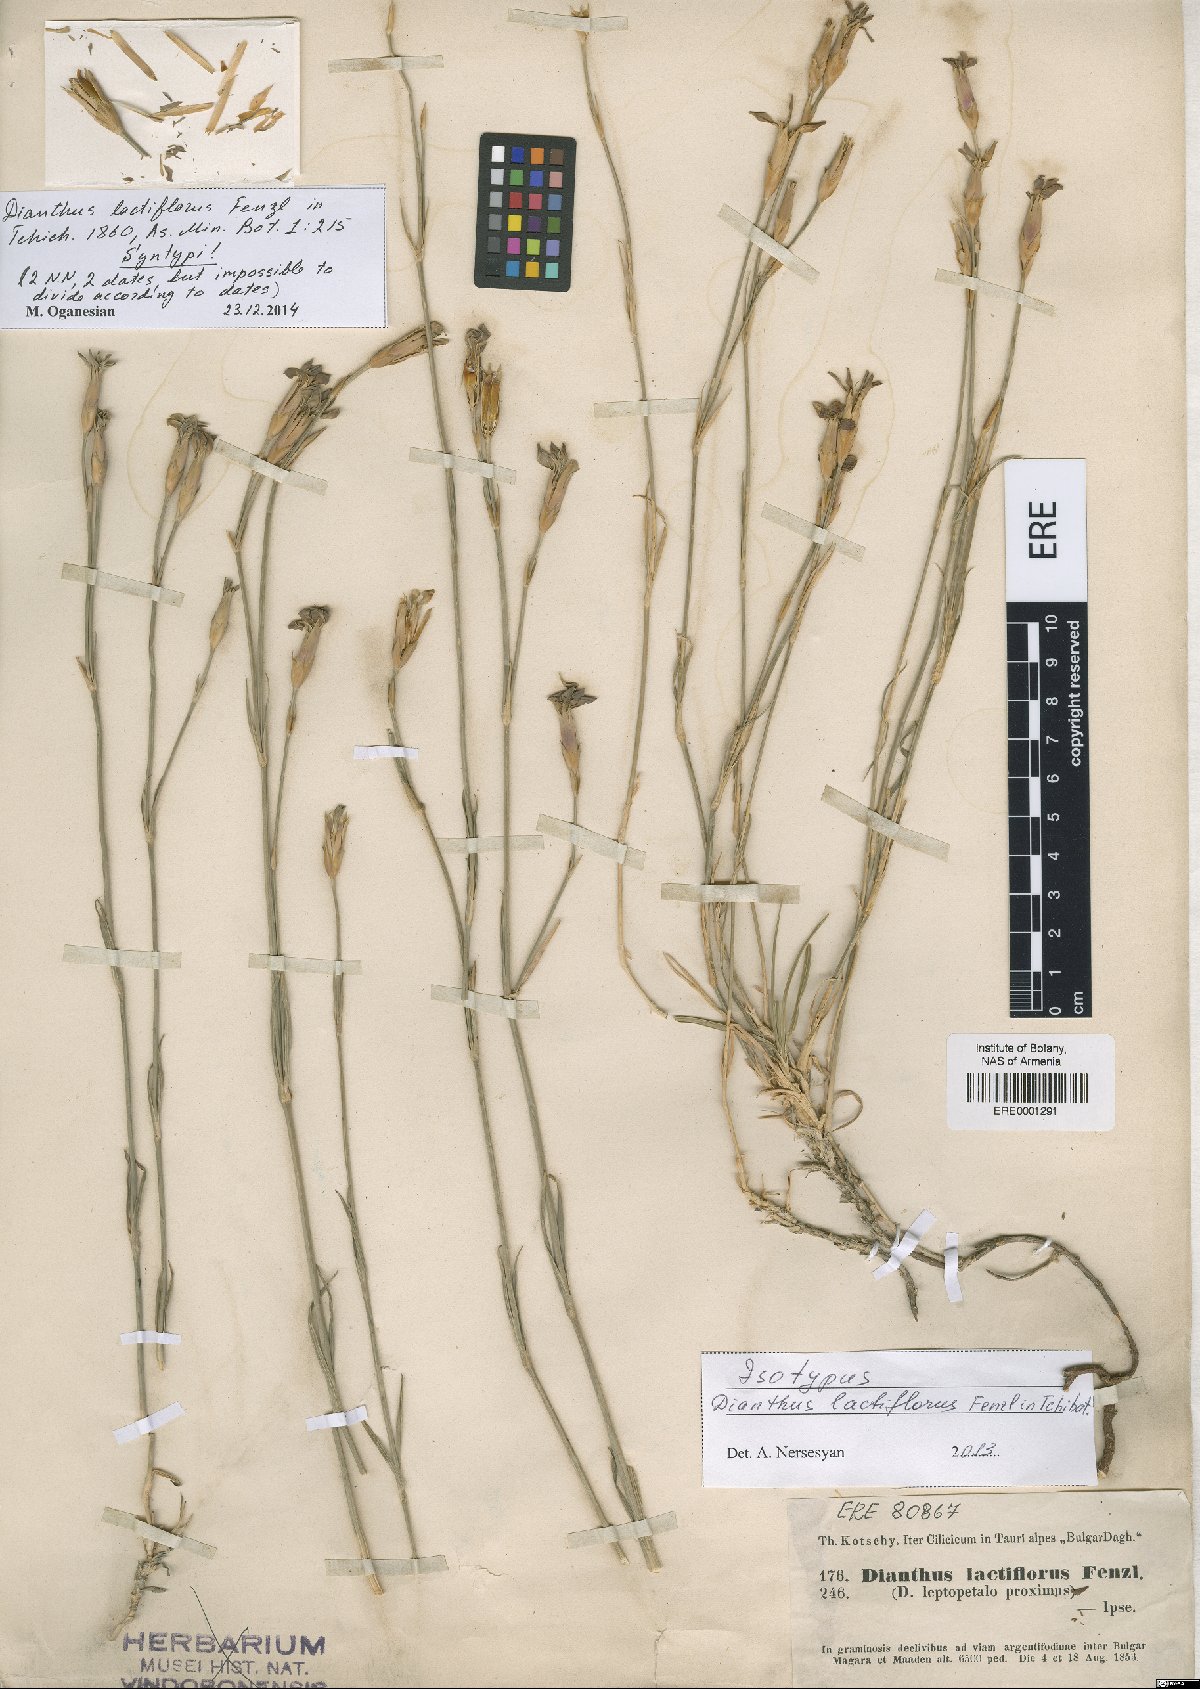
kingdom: Plantae
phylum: Tracheophyta
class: Magnoliopsida
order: Caryophyllales
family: Caryophyllaceae
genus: Dianthus
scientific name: Dianthus lactiflorus
